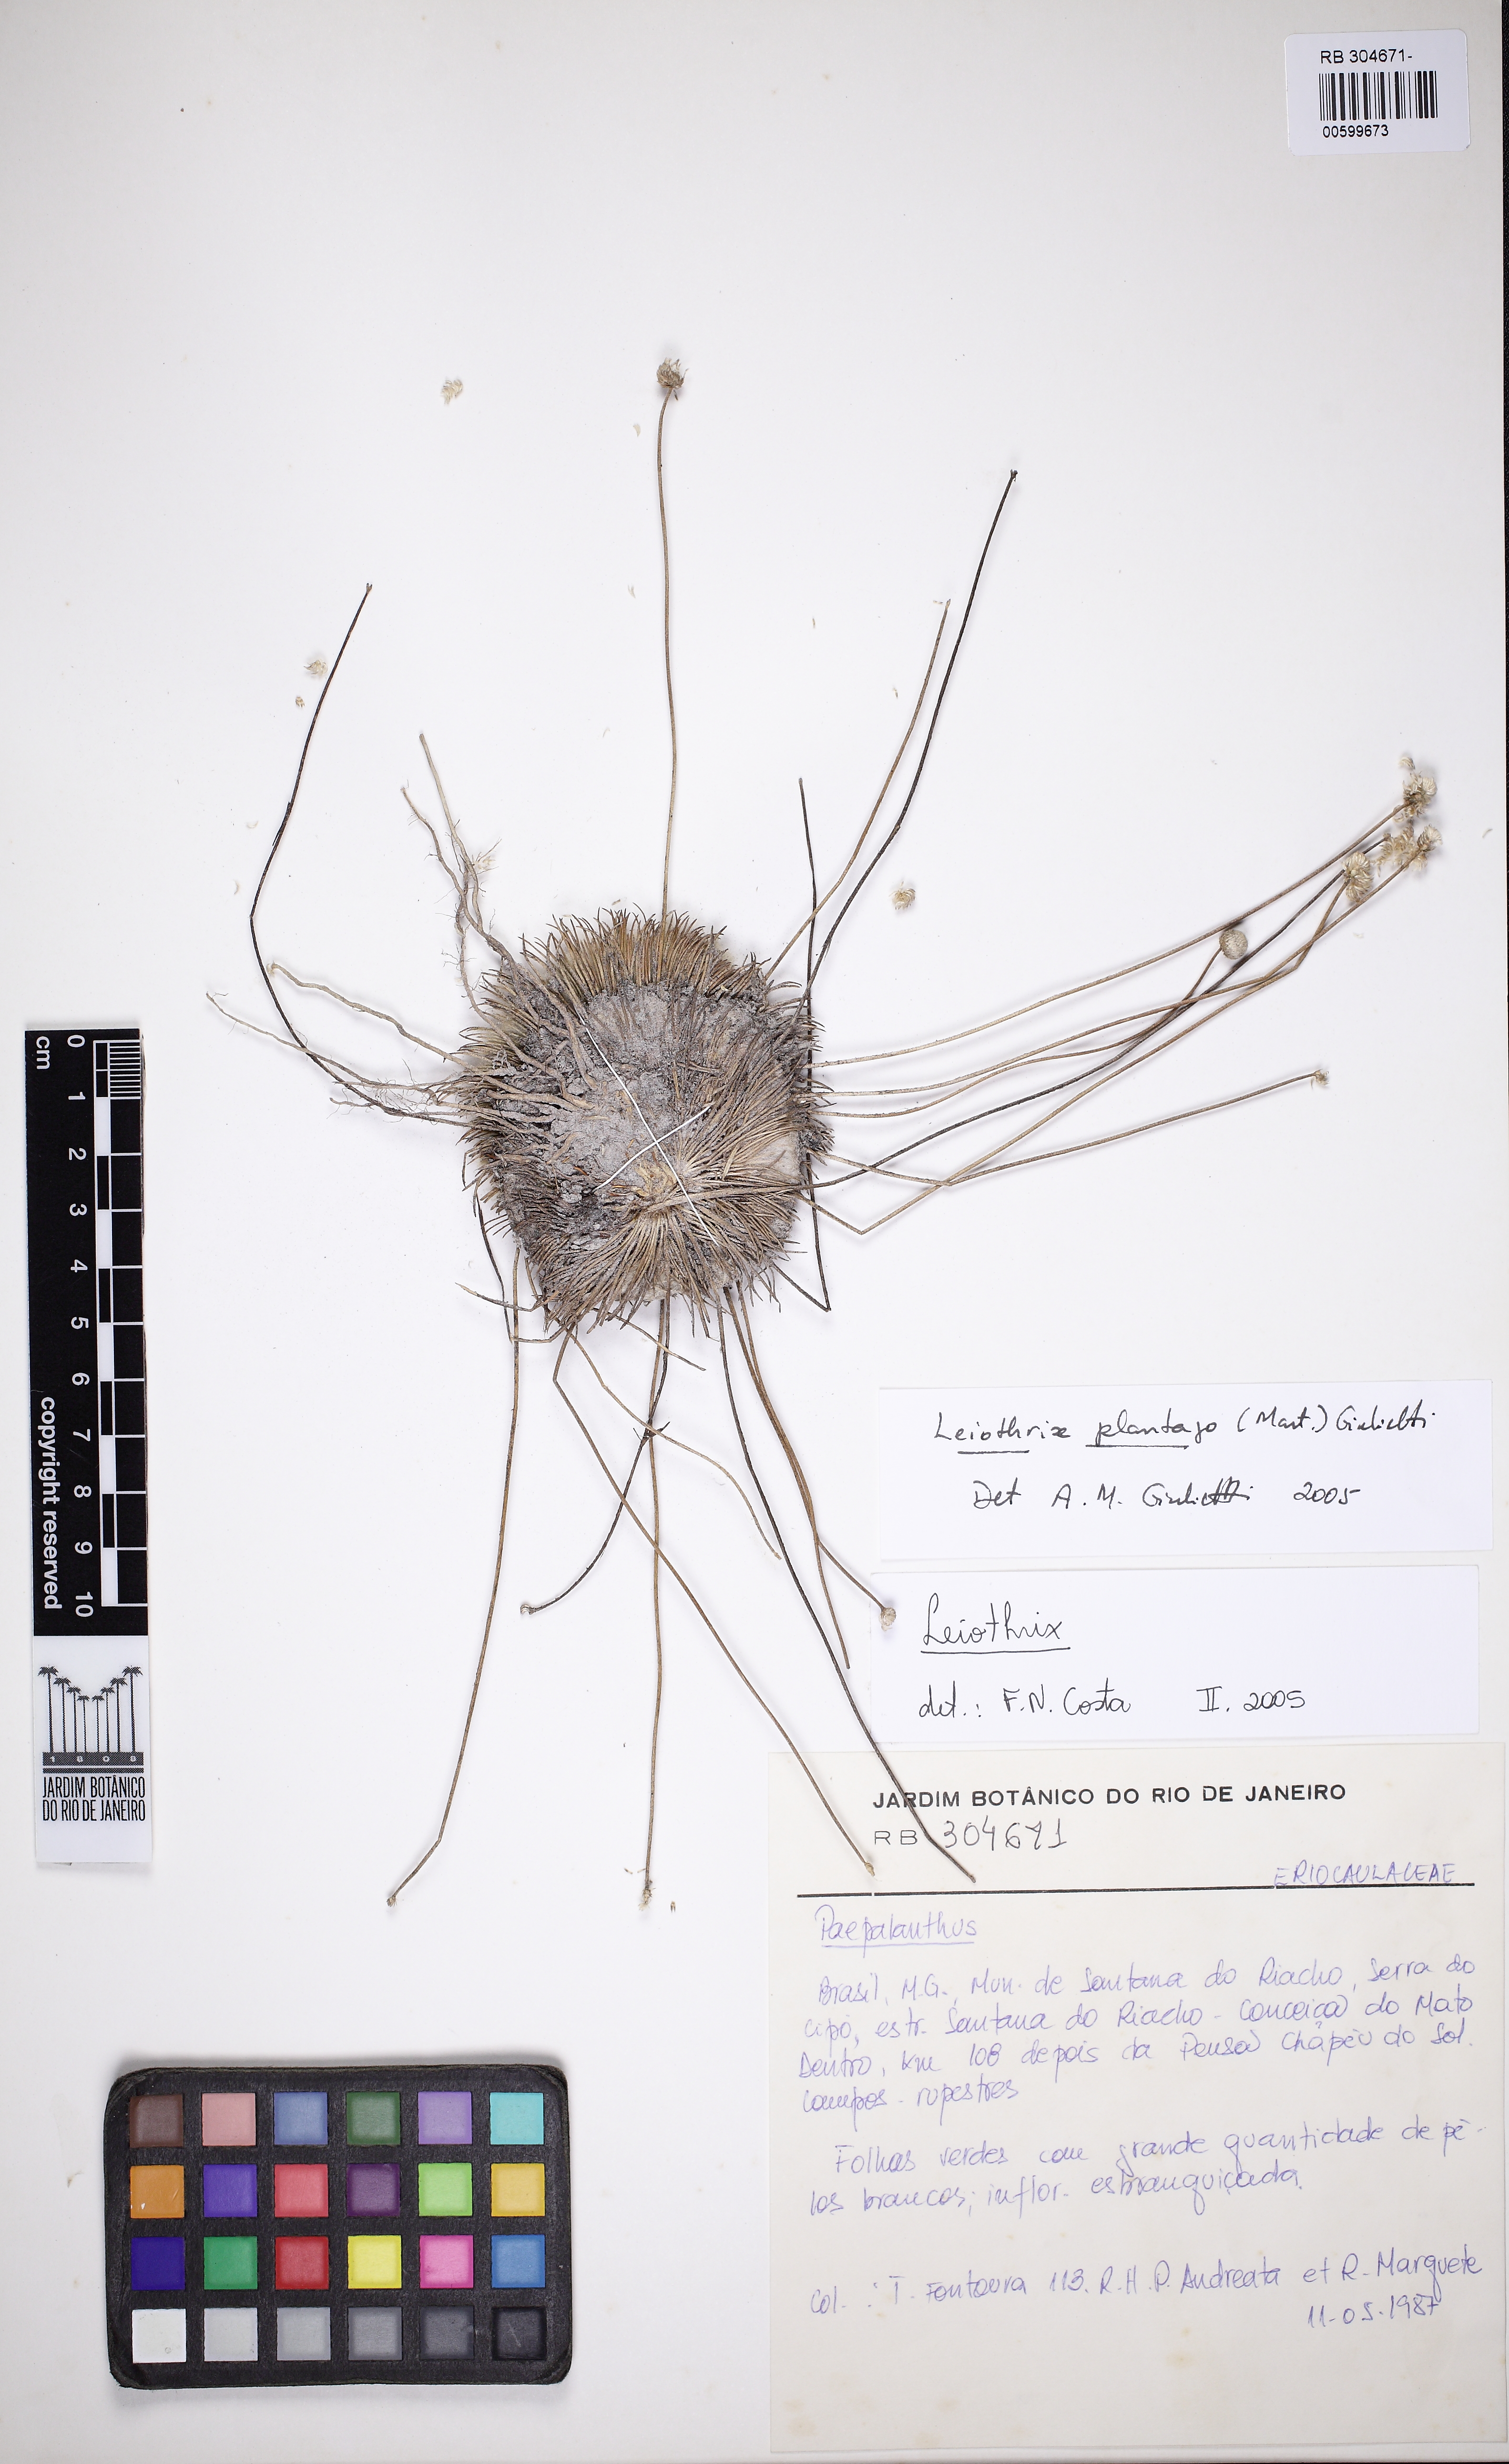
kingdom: Plantae
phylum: Tracheophyta
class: Liliopsida
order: Poales
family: Eriocaulaceae
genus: Leiothrix
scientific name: Leiothrix plantago
